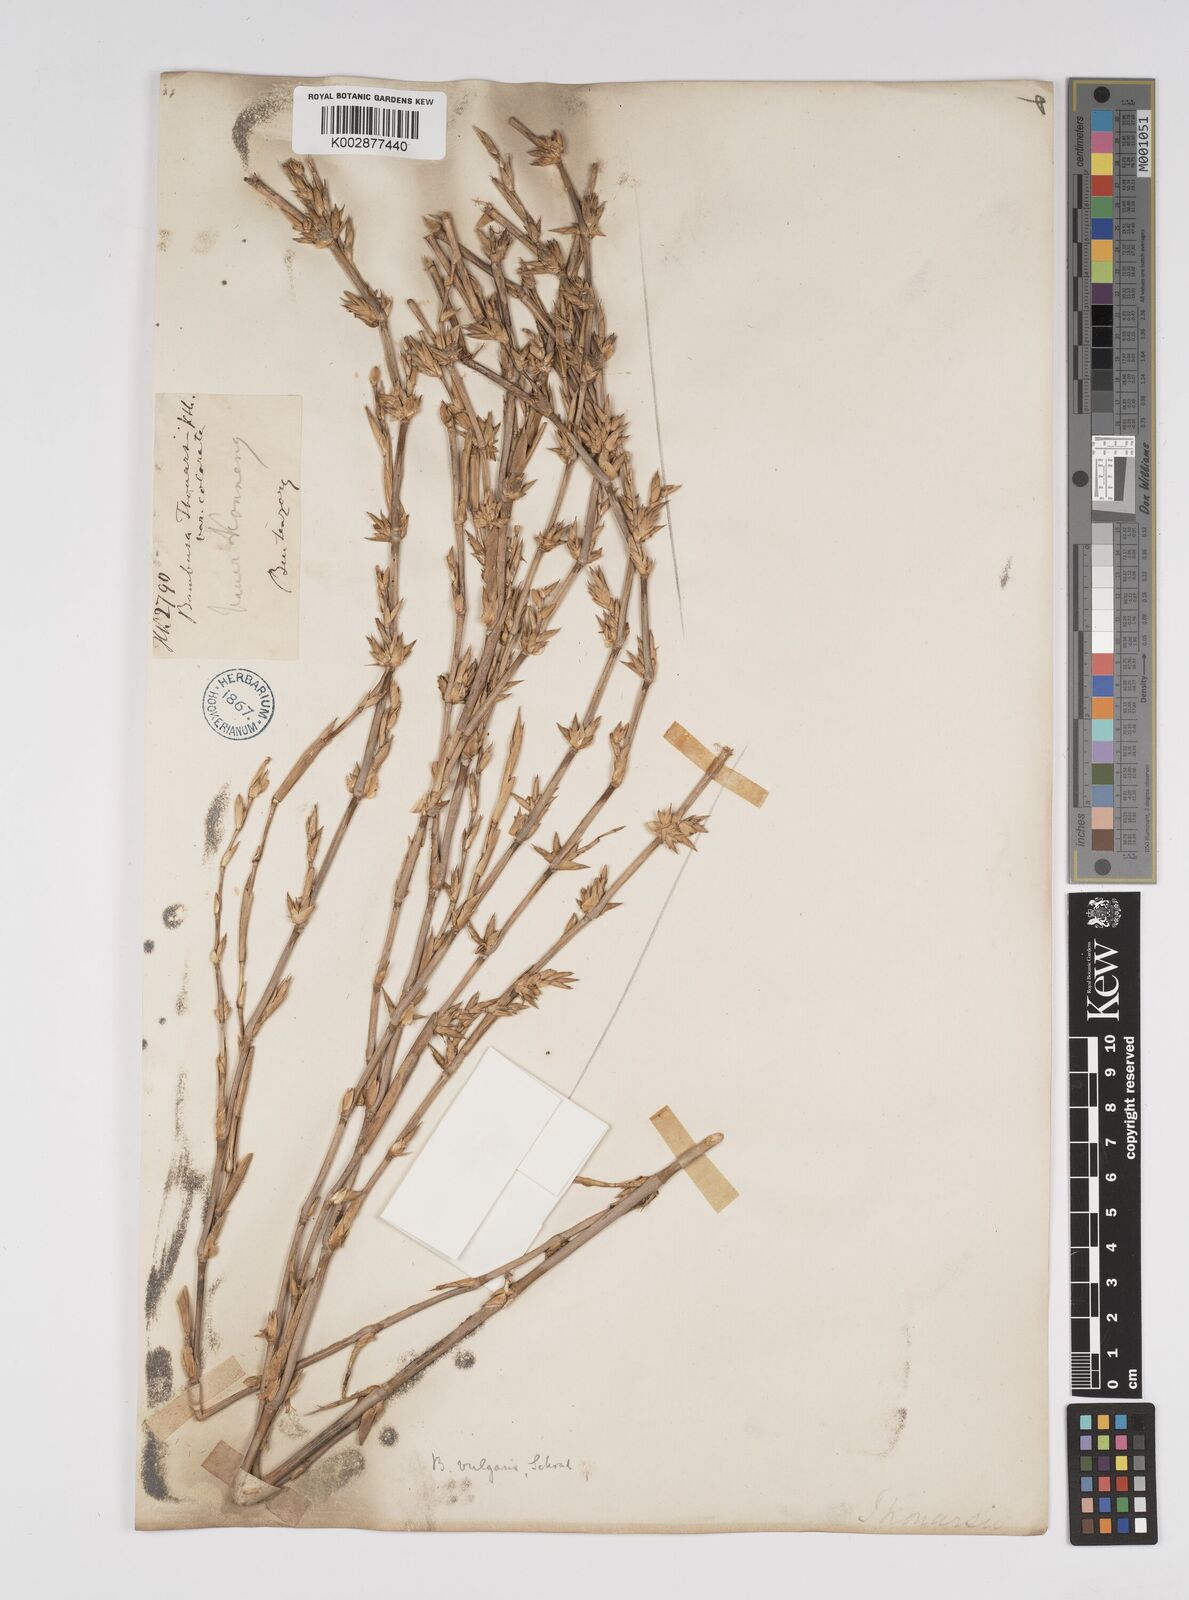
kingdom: Plantae
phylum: Tracheophyta
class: Liliopsida
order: Poales
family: Poaceae
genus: Bambusa
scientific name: Bambusa vulgaris
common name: Common bamboo
